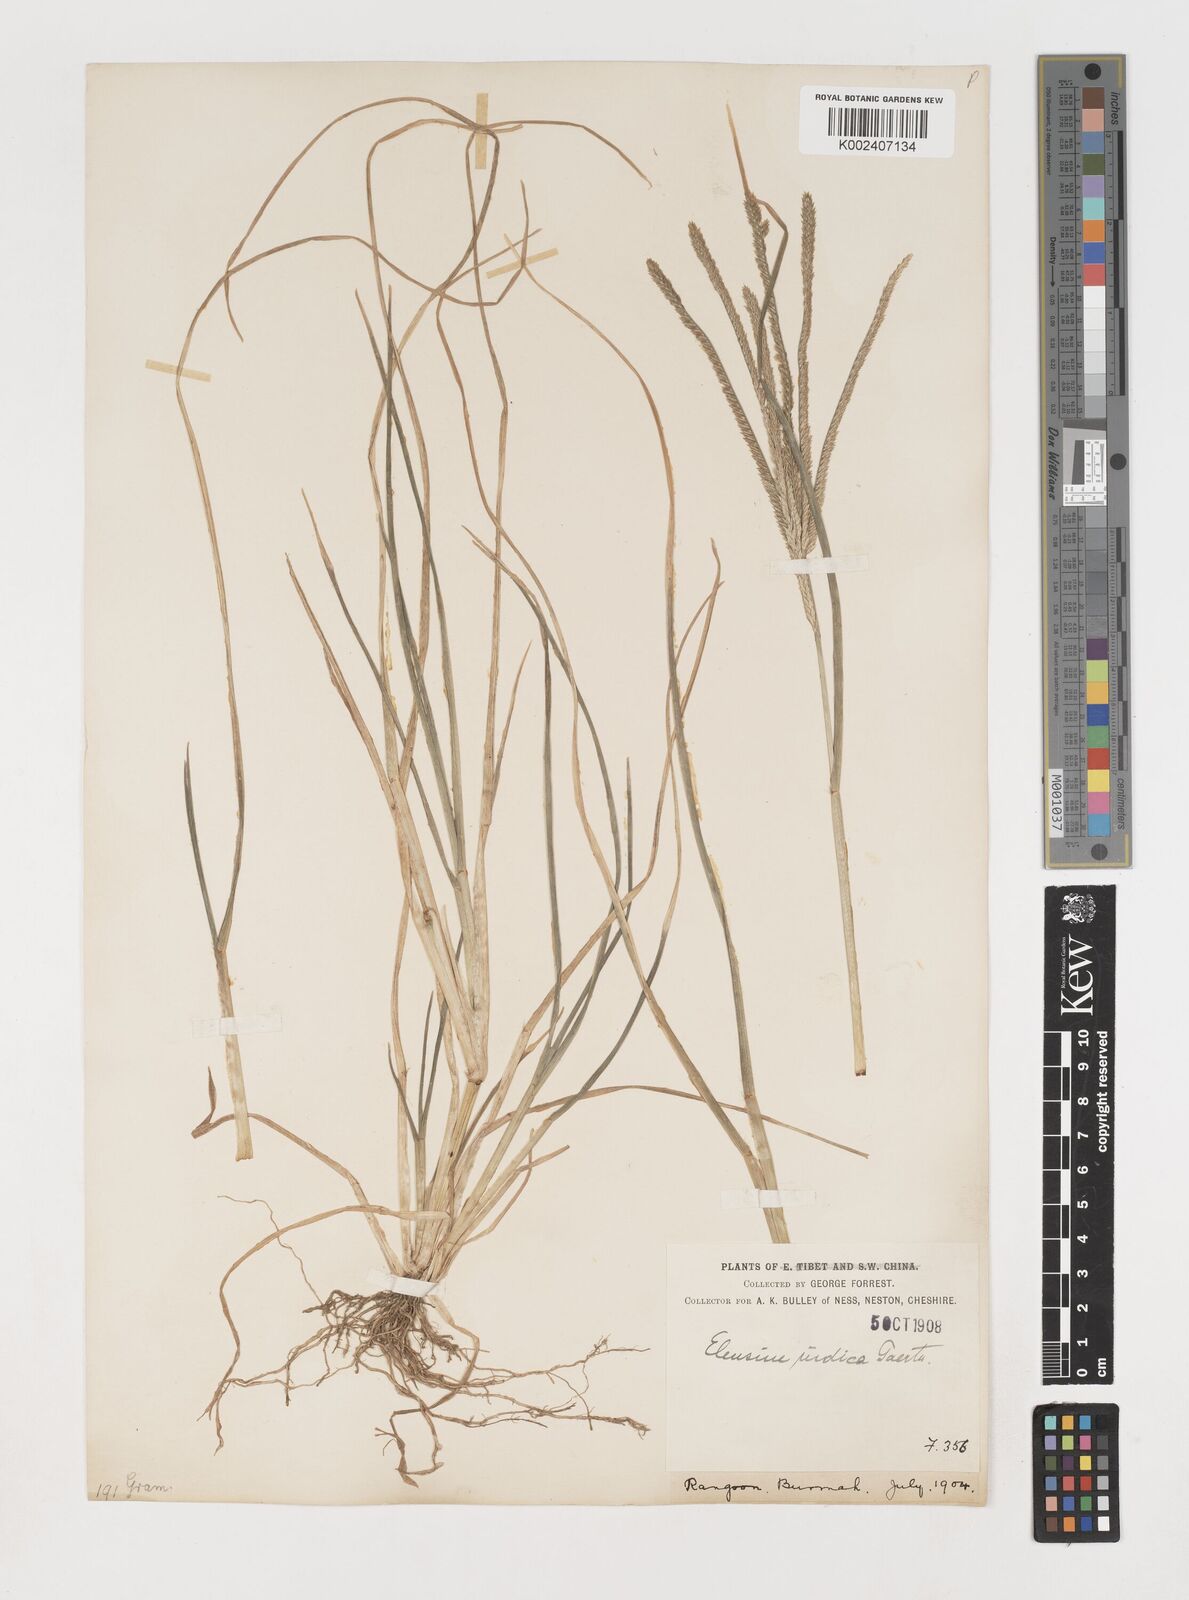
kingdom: Plantae
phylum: Tracheophyta
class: Liliopsida
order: Poales
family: Poaceae
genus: Eleusine
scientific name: Eleusine indica
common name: Yard-grass
